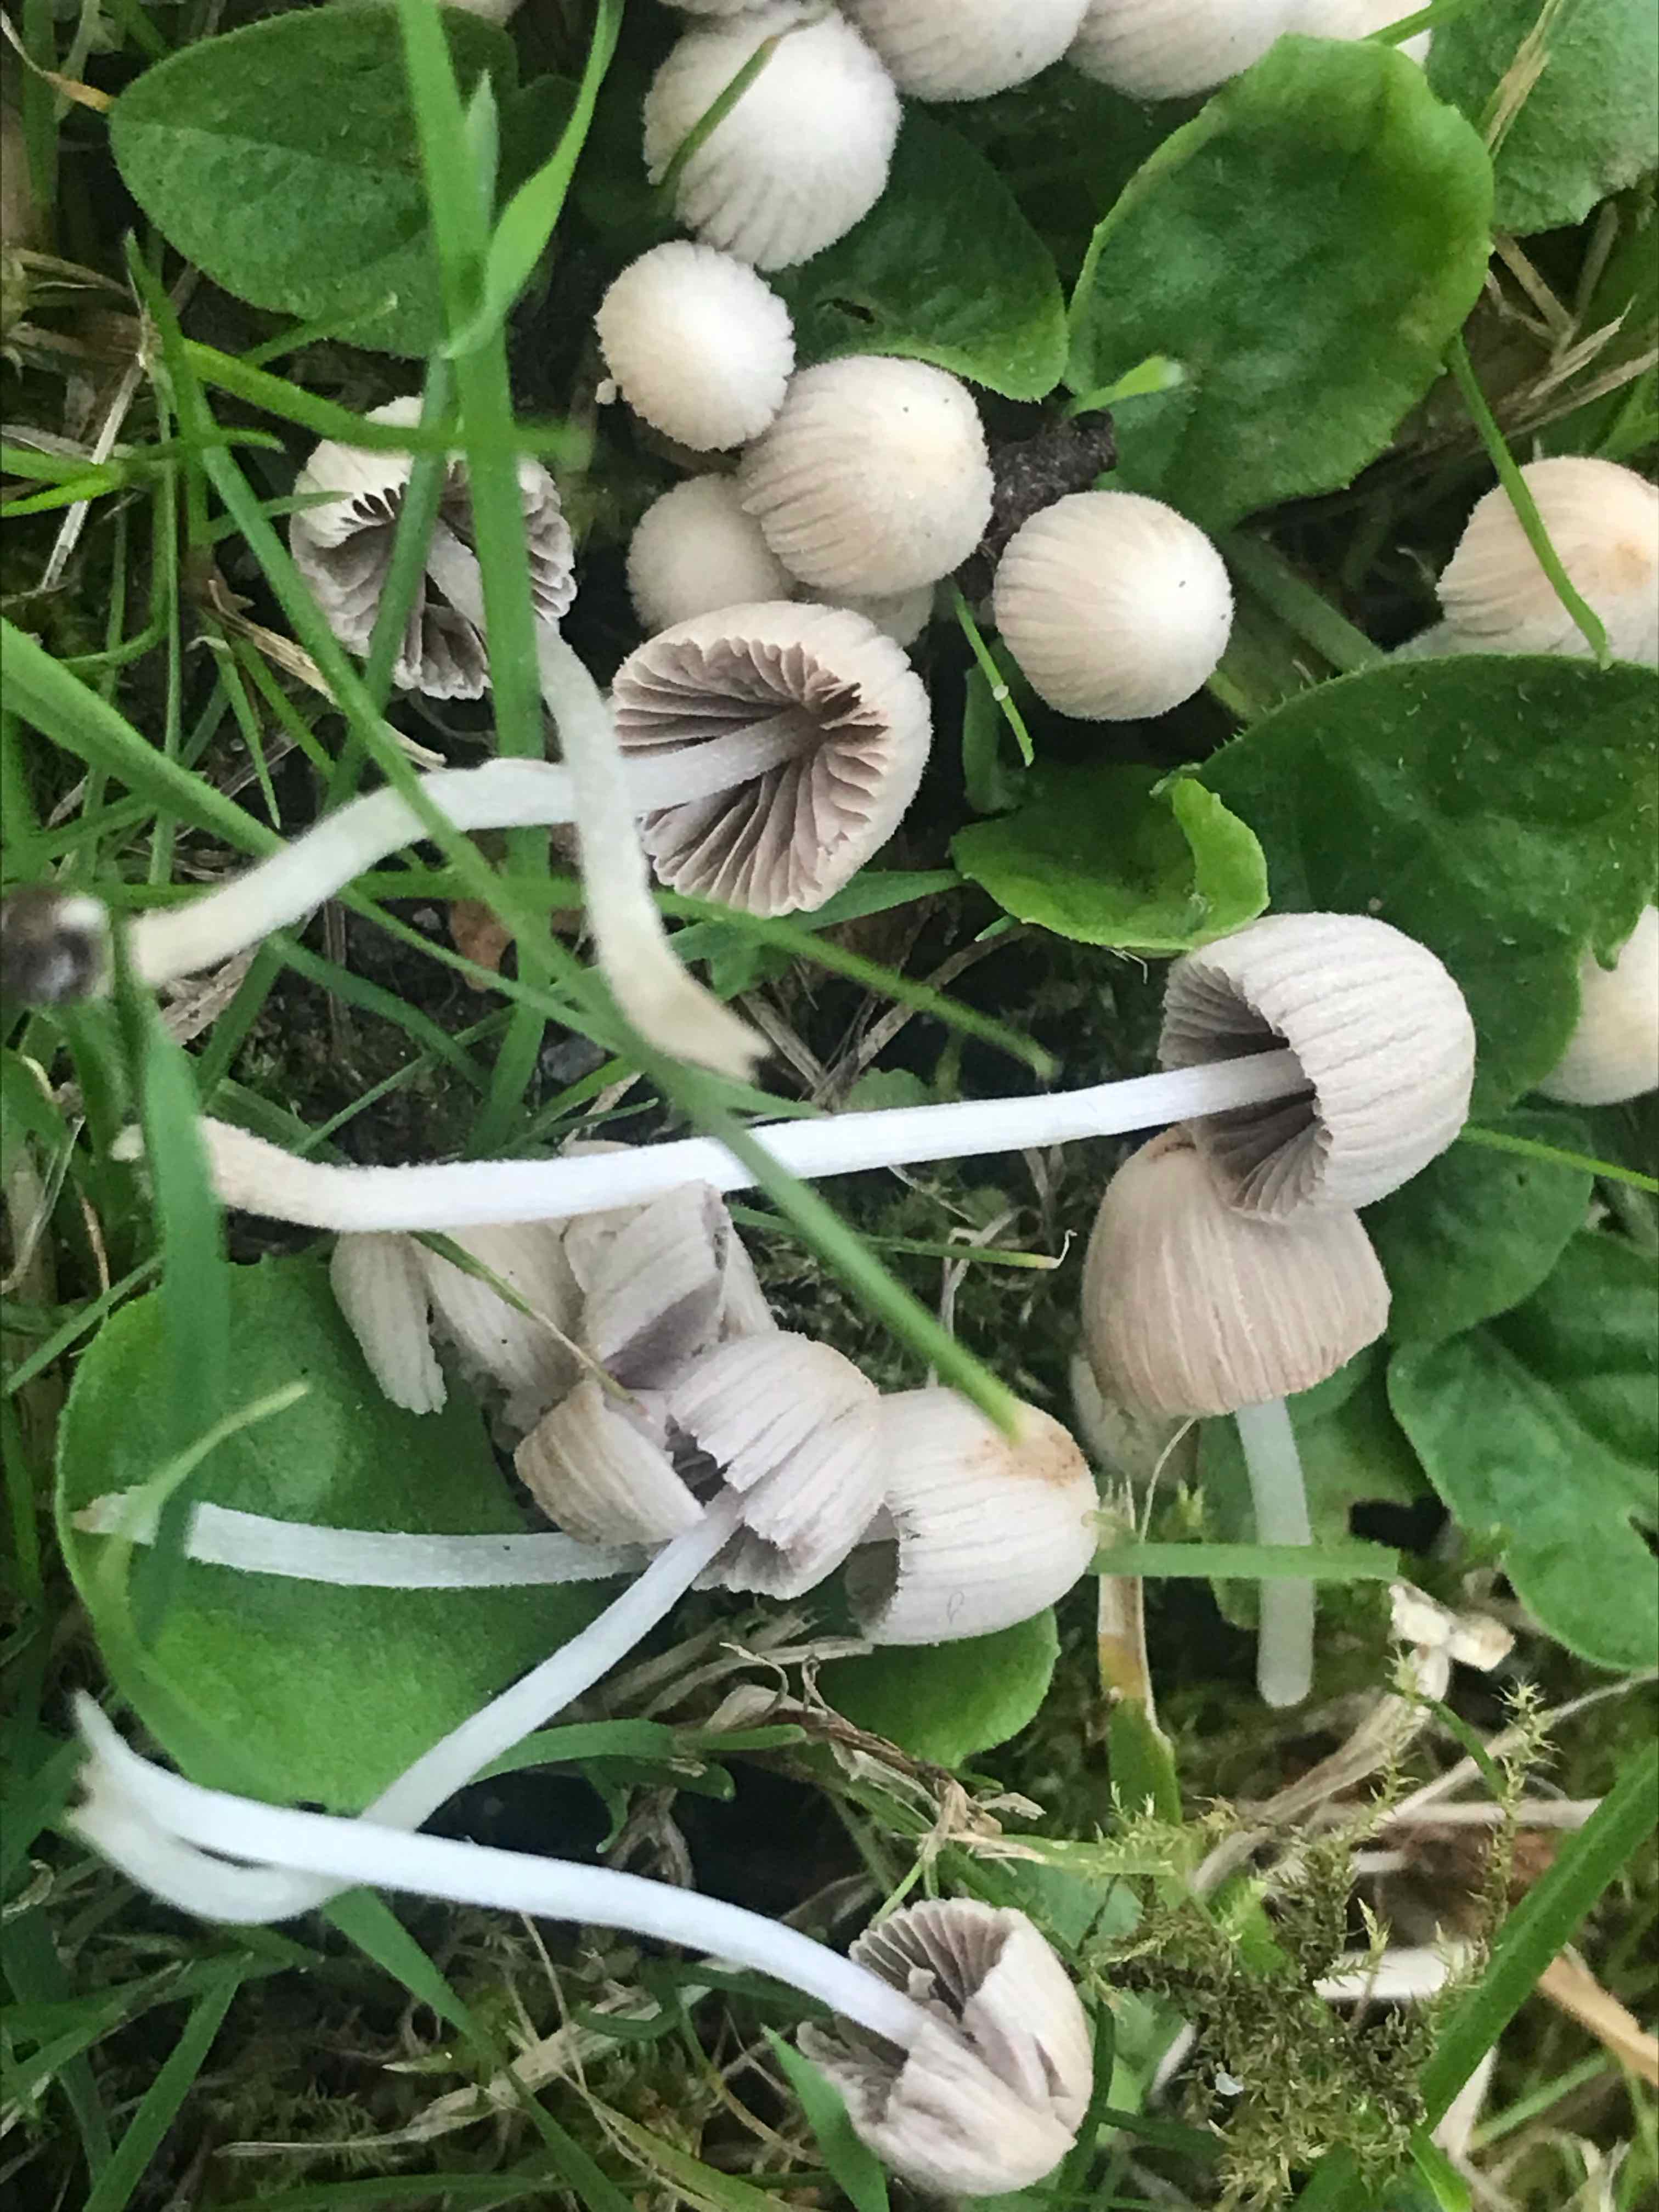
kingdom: Fungi
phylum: Basidiomycota
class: Agaricomycetes
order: Agaricales
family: Psathyrellaceae
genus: Coprinellus
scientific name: Coprinellus disseminatus
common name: bredsået blækhat
